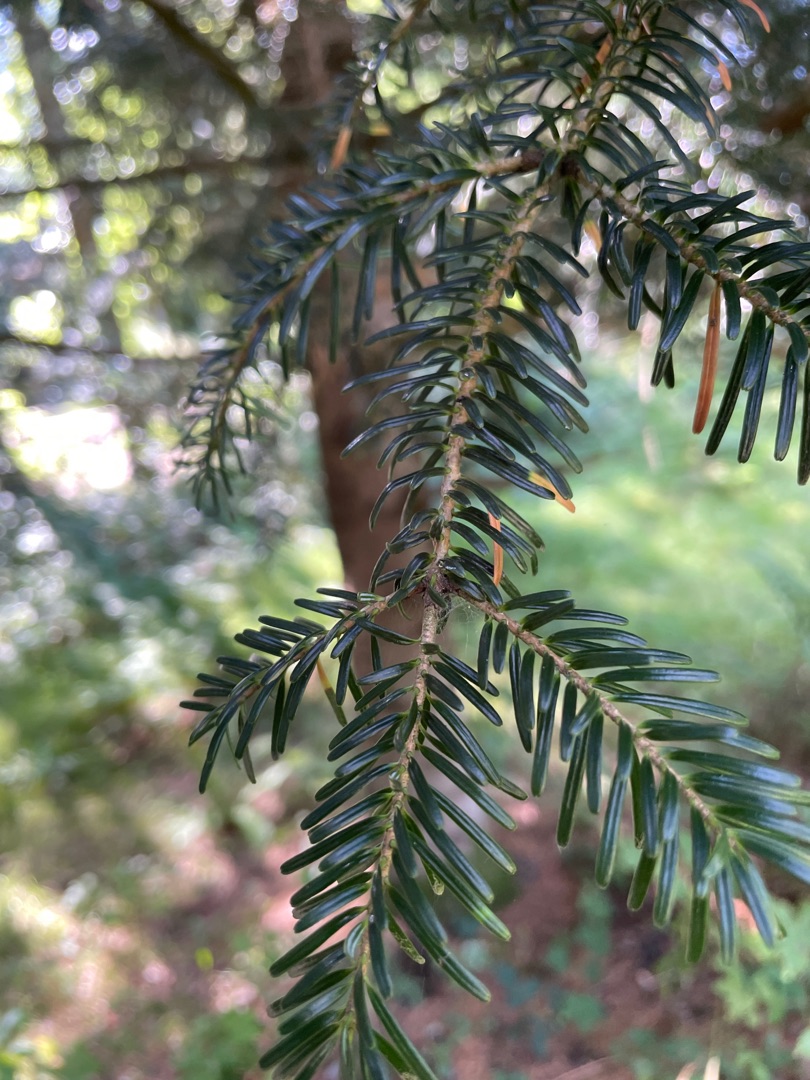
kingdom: Plantae
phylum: Tracheophyta
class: Pinopsida
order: Pinales
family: Pinaceae
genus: Abies
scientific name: Abies alba
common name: Almindelig ædelgran
